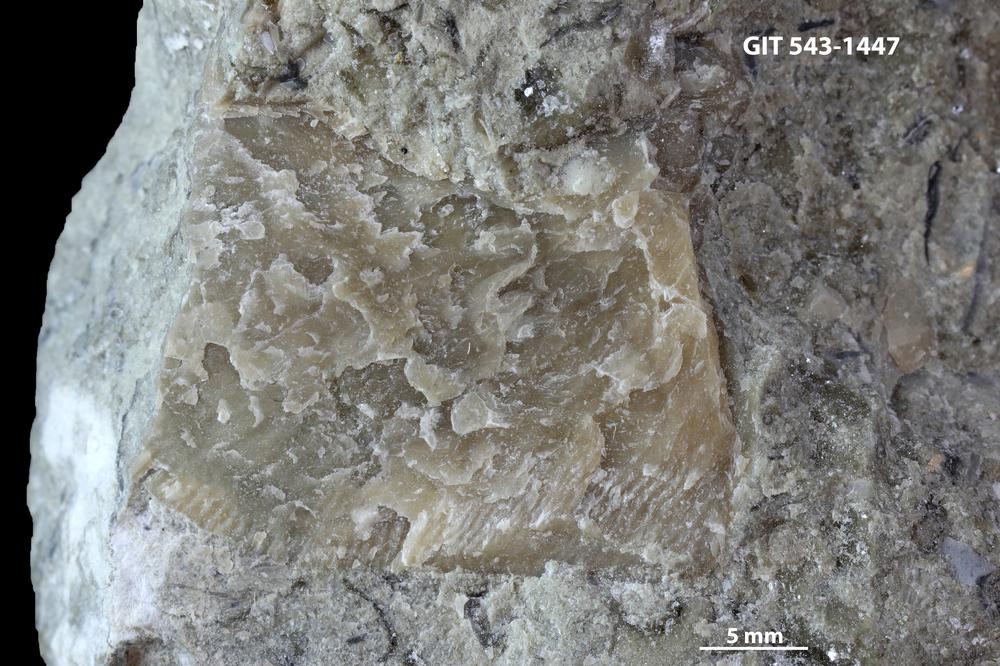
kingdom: Animalia
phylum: Brachiopoda
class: Rhynchonellata
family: Clitambonitidae
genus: Clinambon
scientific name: Clinambon anomalus
